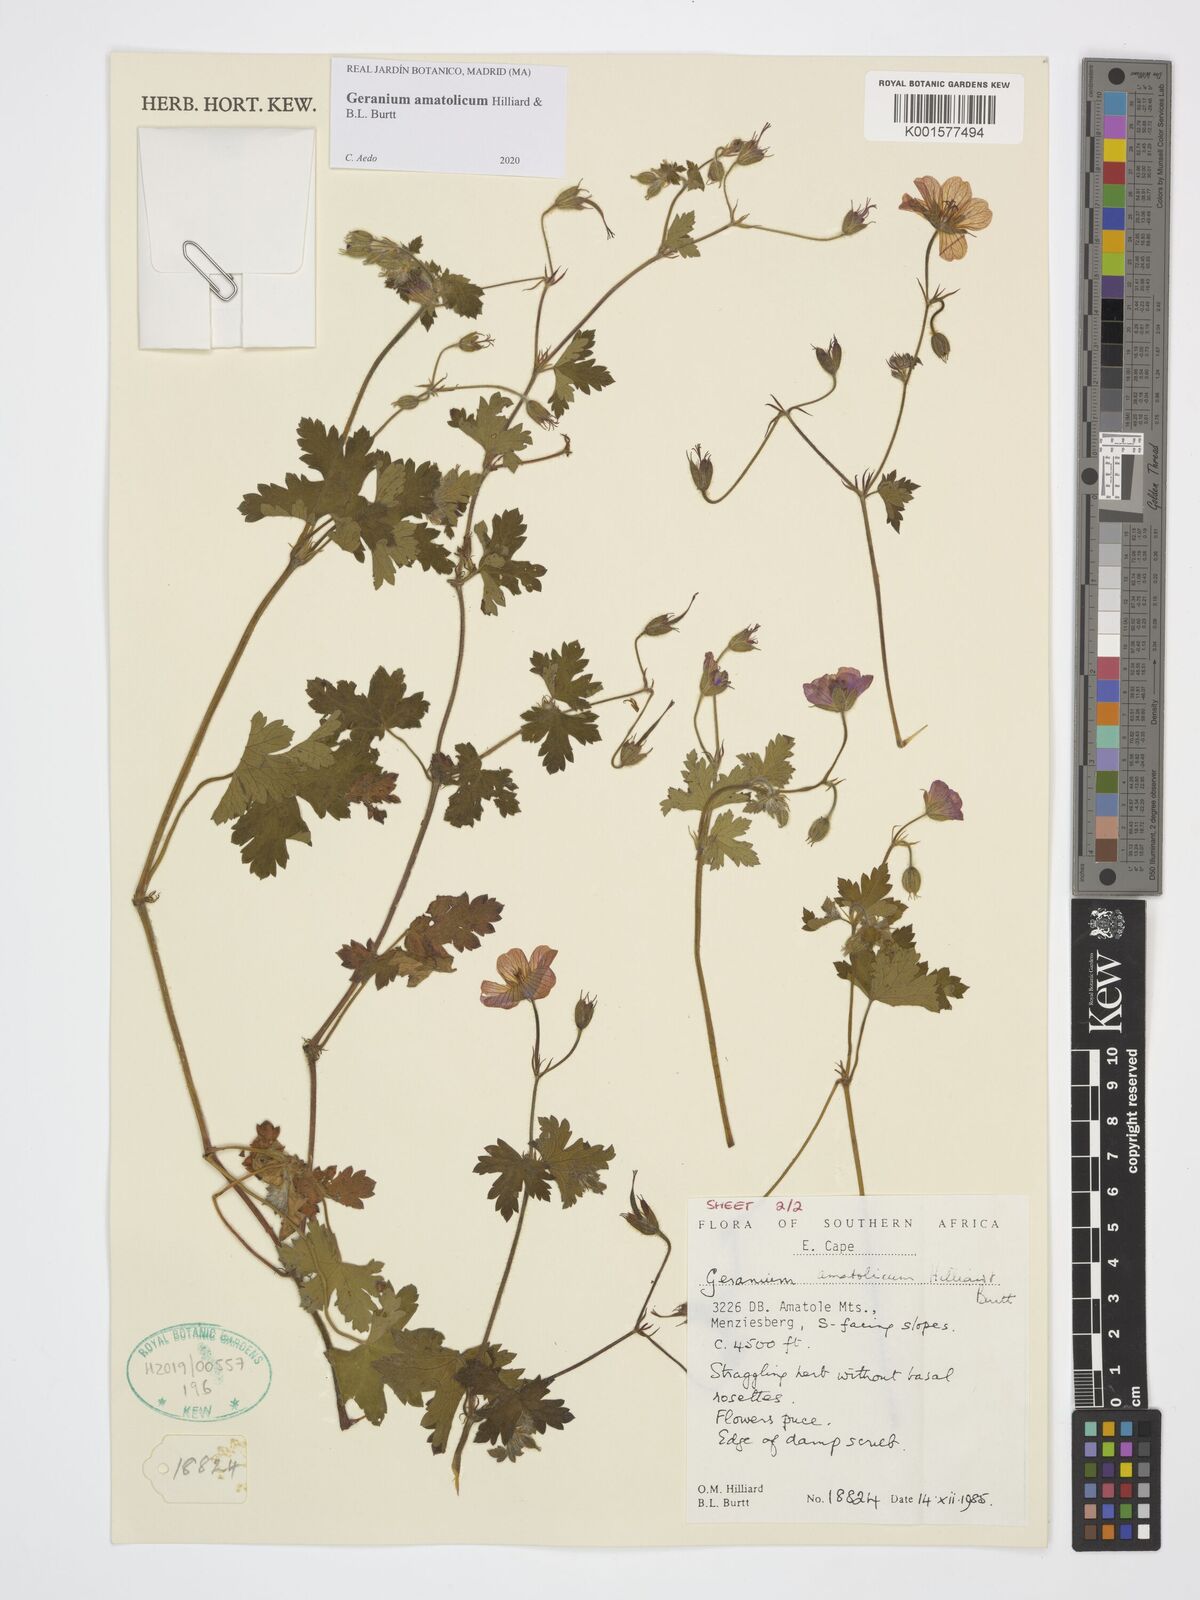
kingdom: Plantae
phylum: Tracheophyta
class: Magnoliopsida
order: Geraniales
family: Geraniaceae
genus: Geranium
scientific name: Geranium amatolicum
